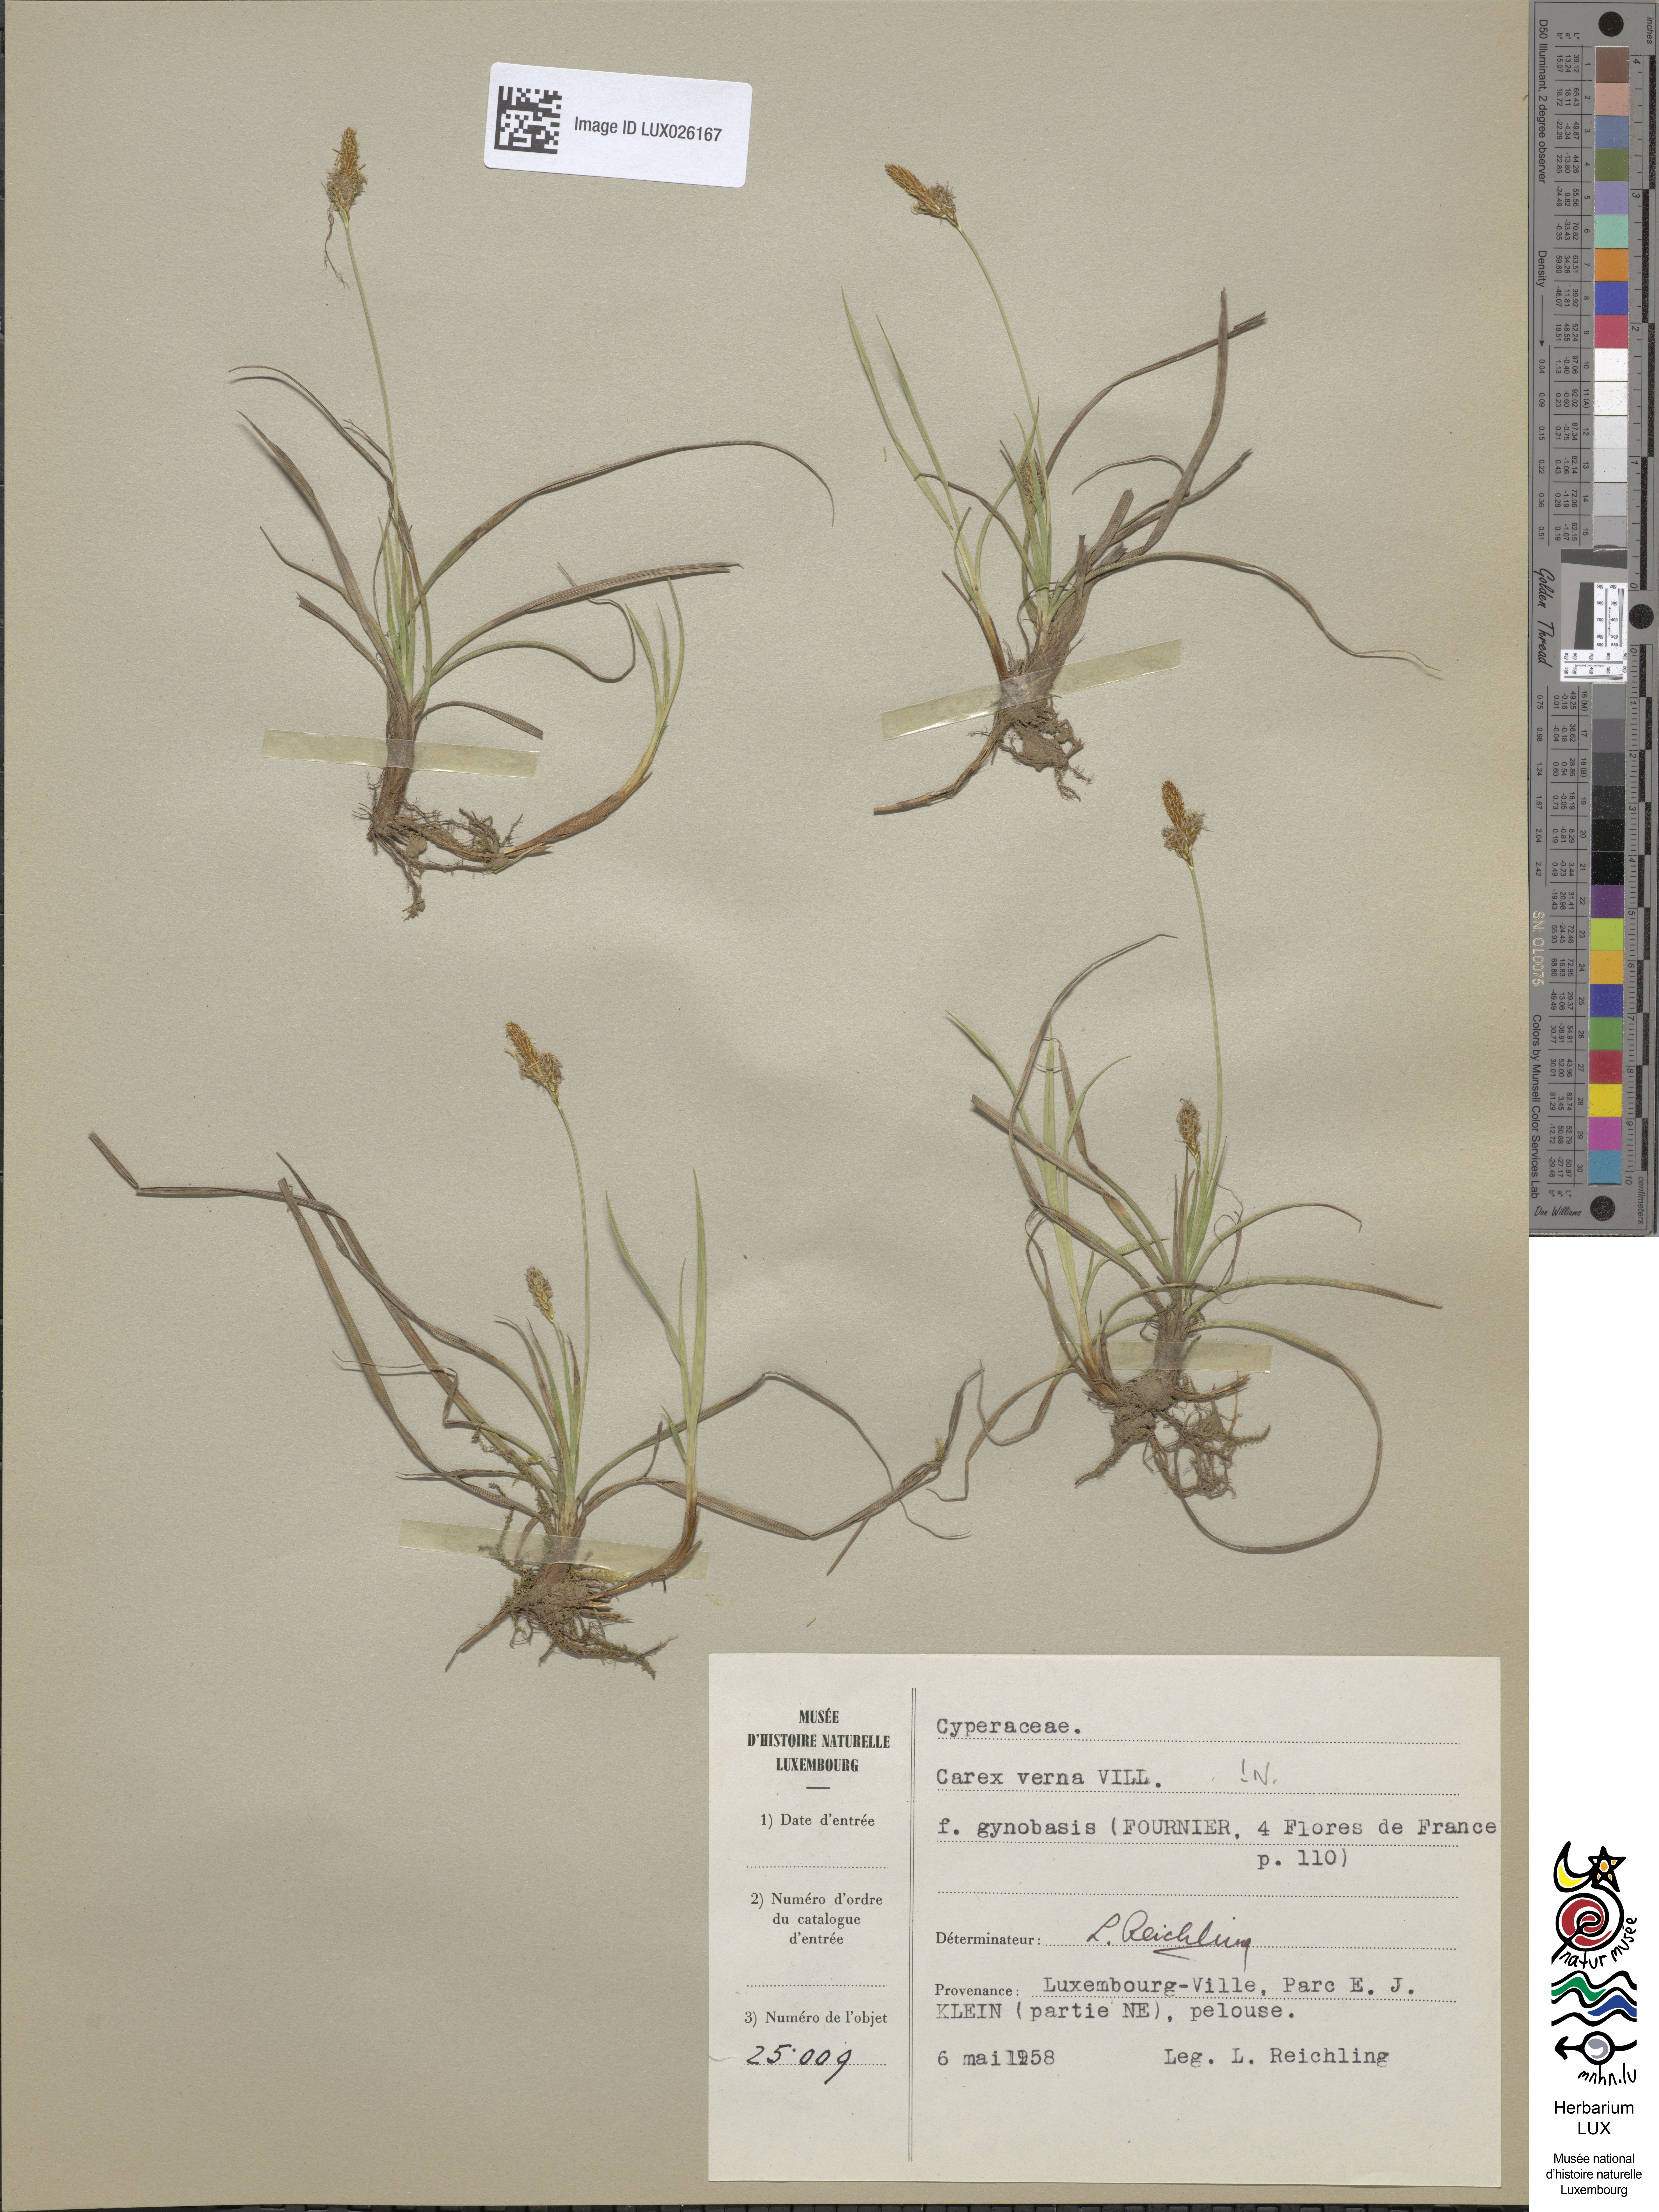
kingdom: Plantae
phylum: Tracheophyta
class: Liliopsida
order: Poales
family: Cyperaceae
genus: Carex
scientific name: Carex
